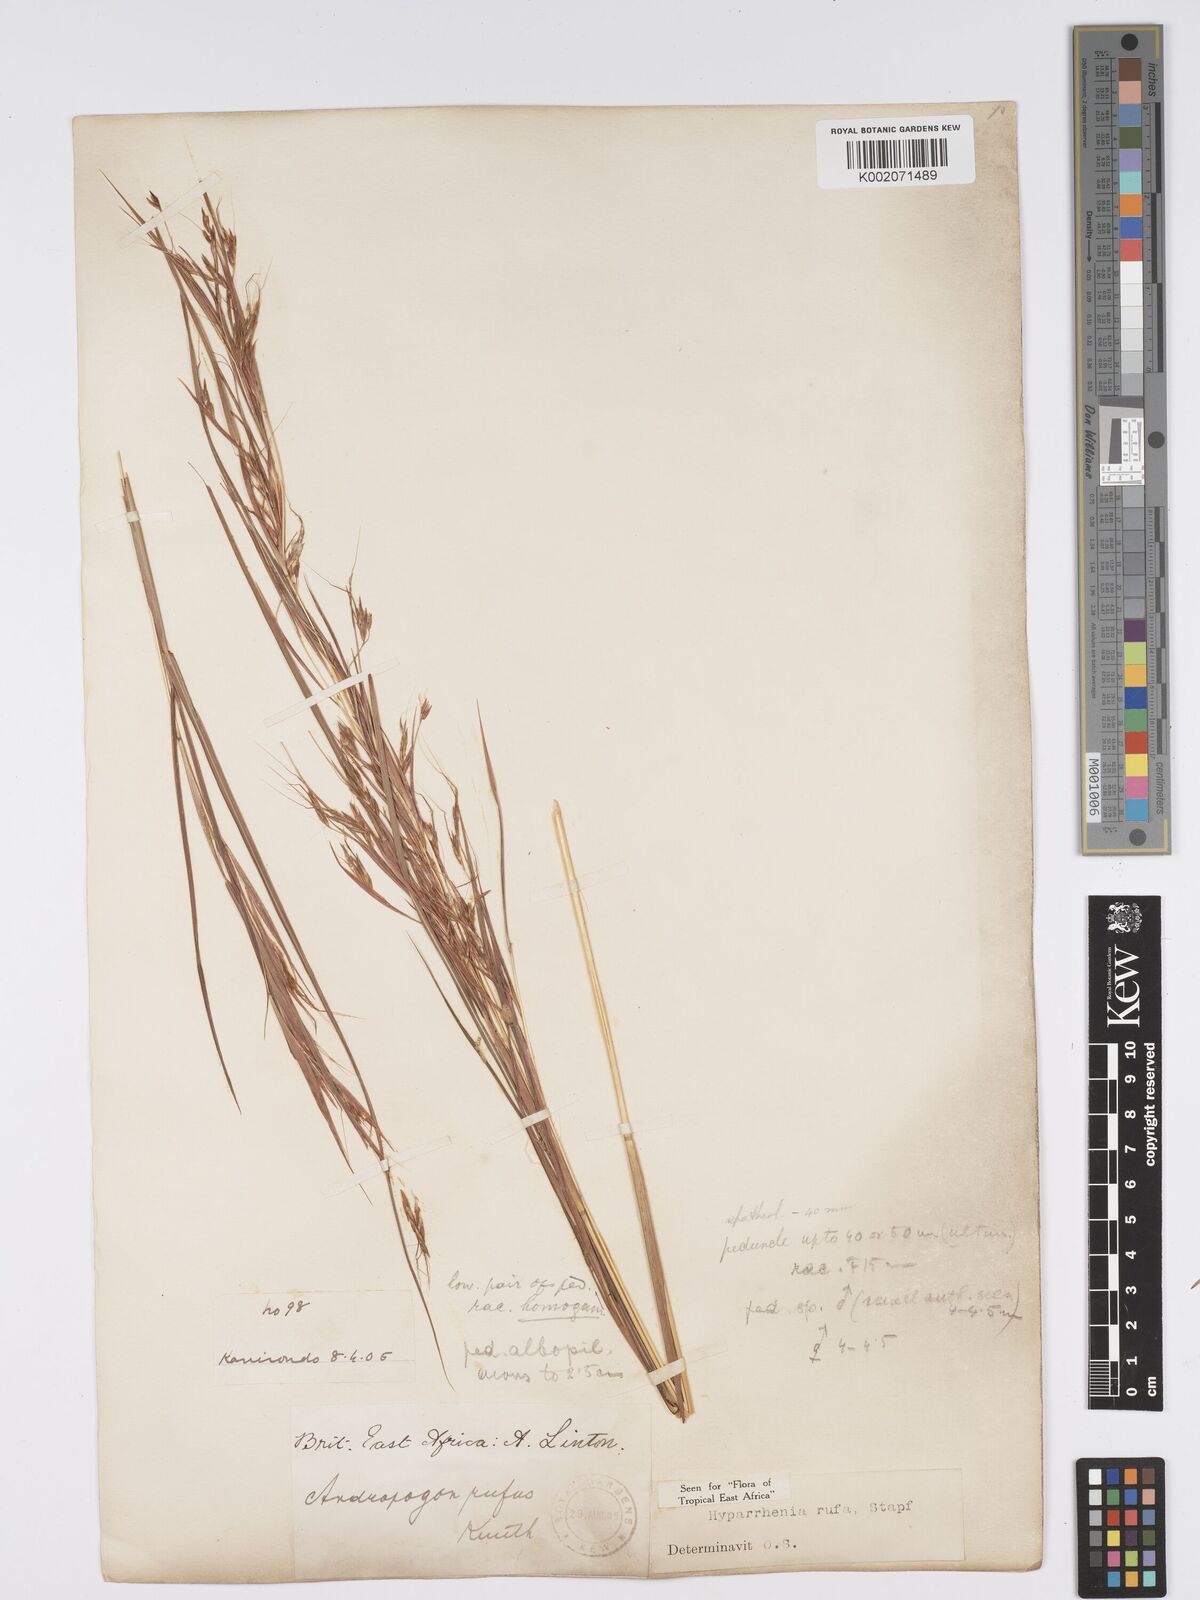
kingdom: Plantae
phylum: Tracheophyta
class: Liliopsida
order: Poales
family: Poaceae
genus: Hyparrhenia
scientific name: Hyparrhenia rufa
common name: Jaraguagrass
